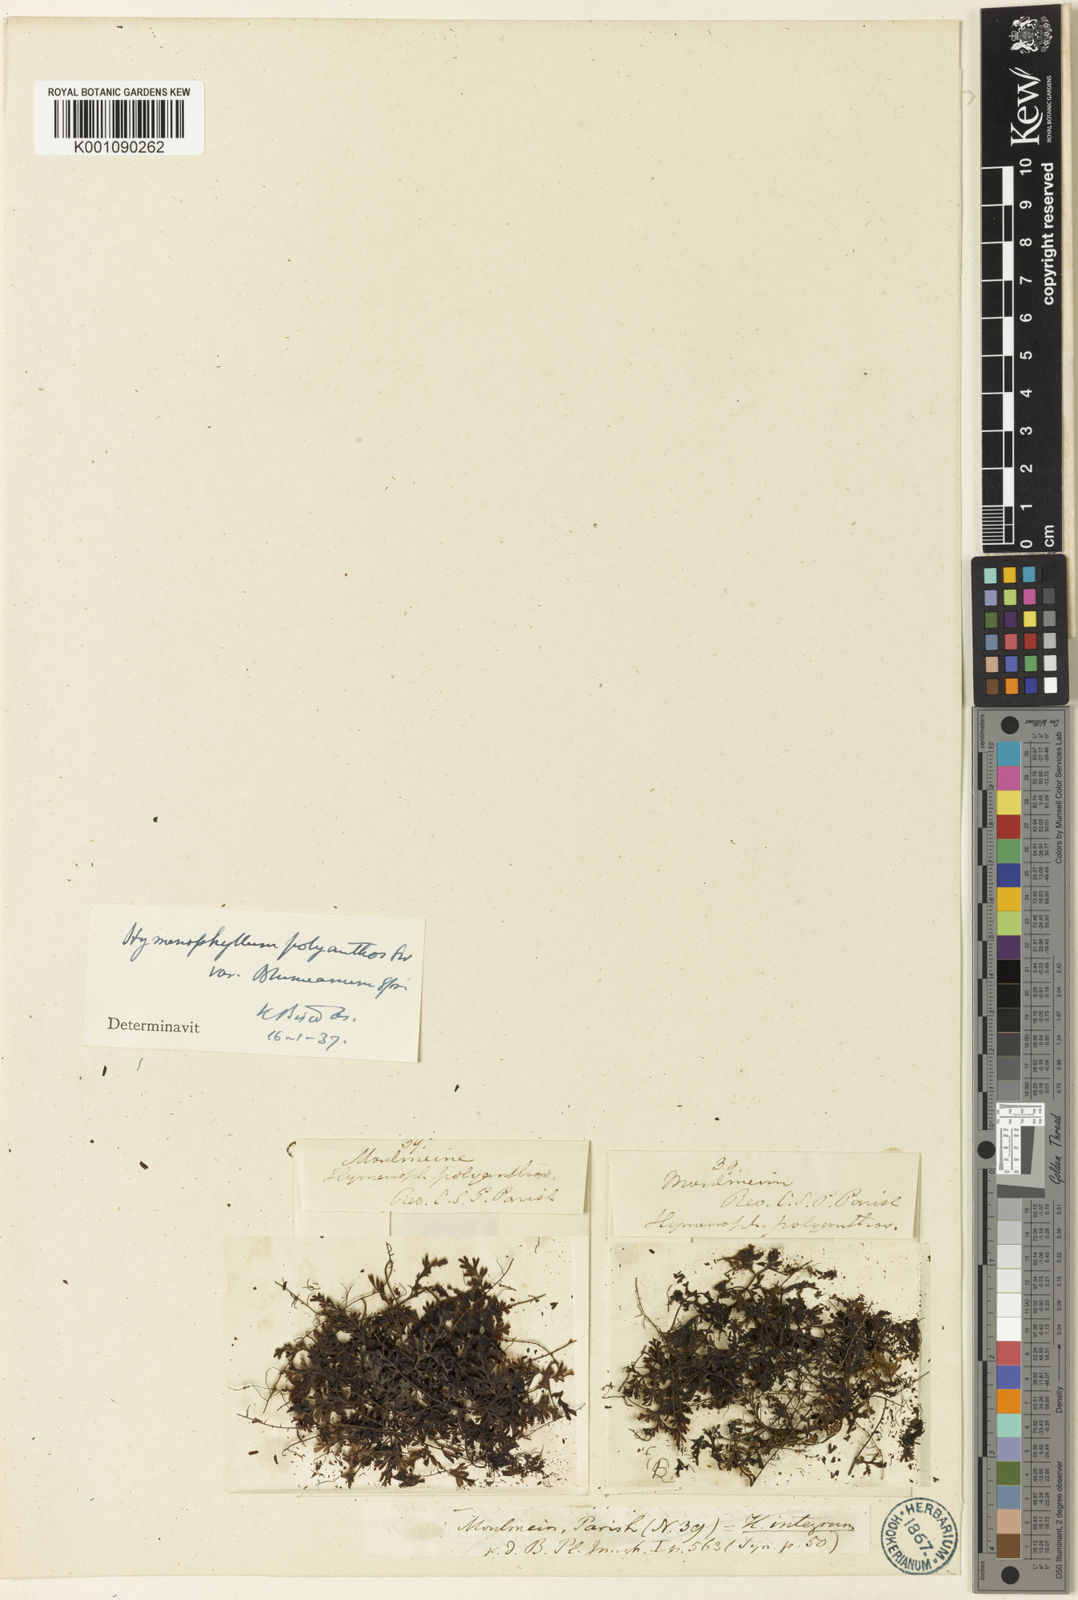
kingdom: Plantae
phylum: Tracheophyta
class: Polypodiopsida
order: Hymenophyllales
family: Hymenophyllaceae
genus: Hymenophyllum
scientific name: Hymenophyllum polyanthos
